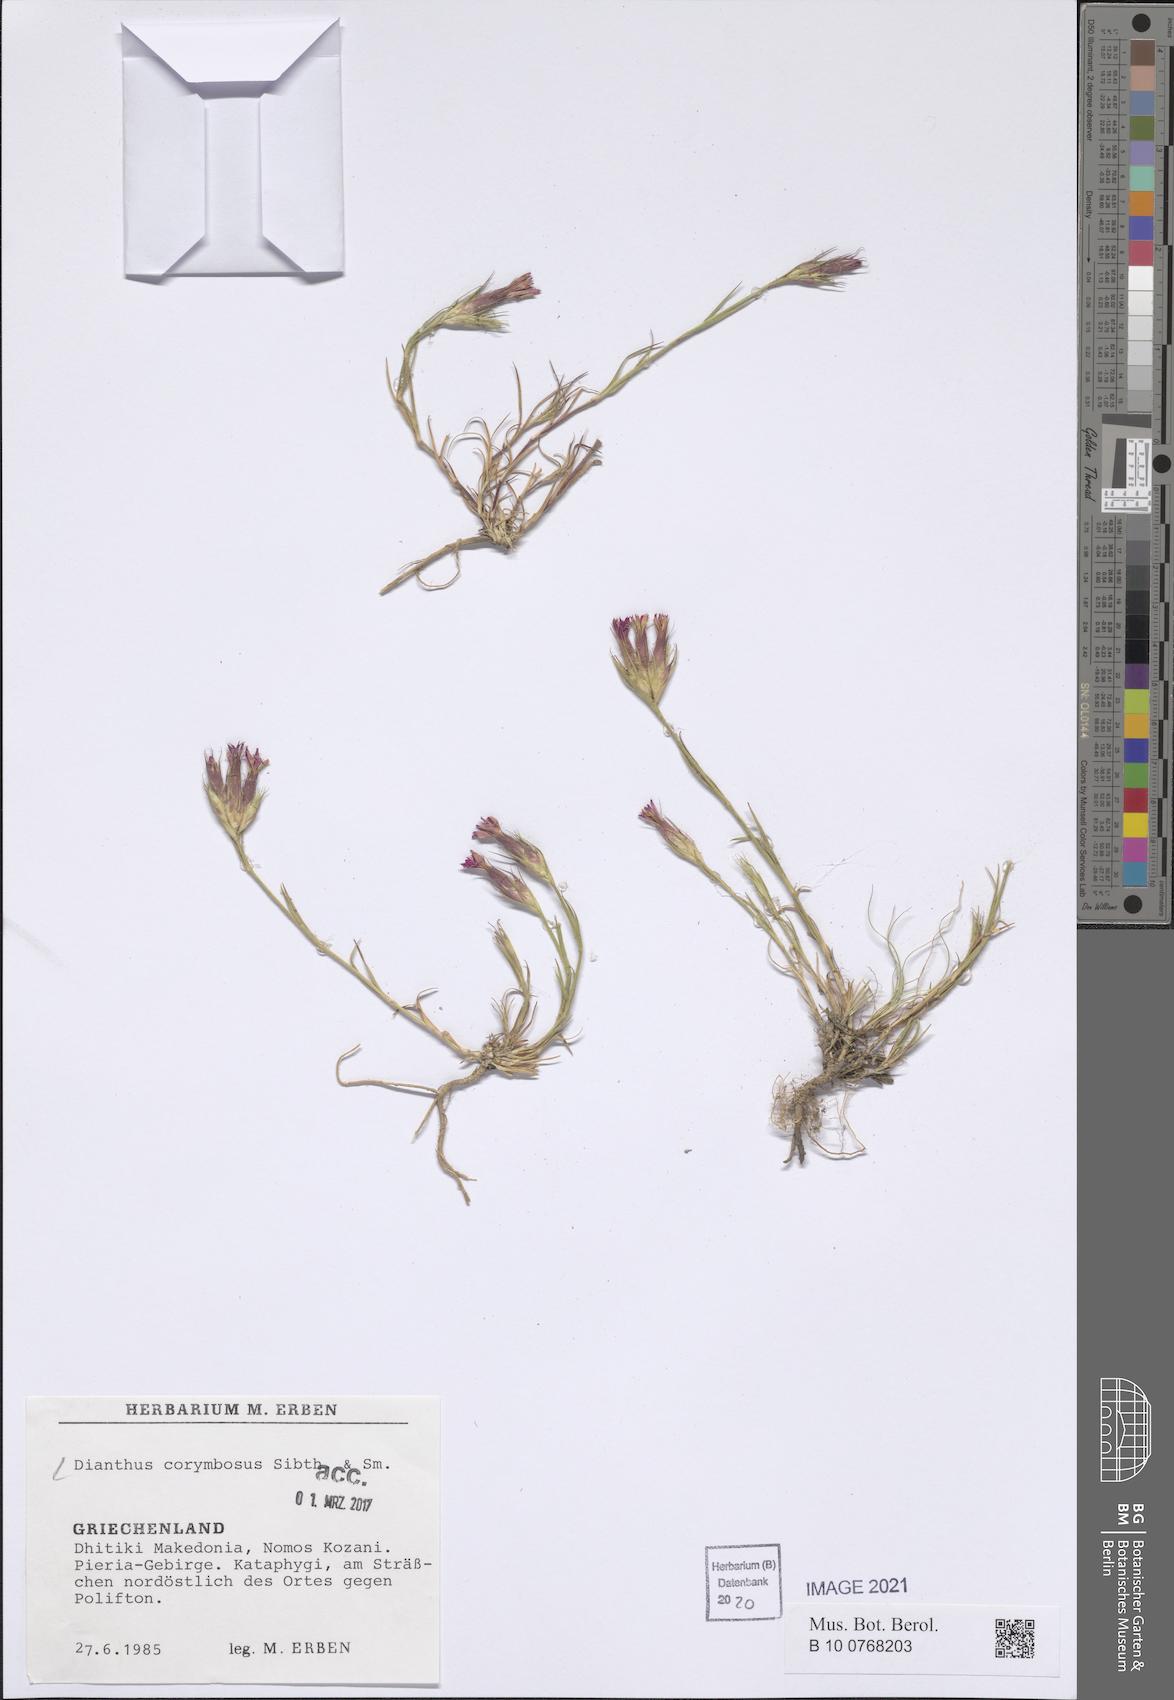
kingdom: Plantae
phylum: Tracheophyta
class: Magnoliopsida
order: Caryophyllales
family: Caryophyllaceae
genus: Dianthus
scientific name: Dianthus corymbosus
